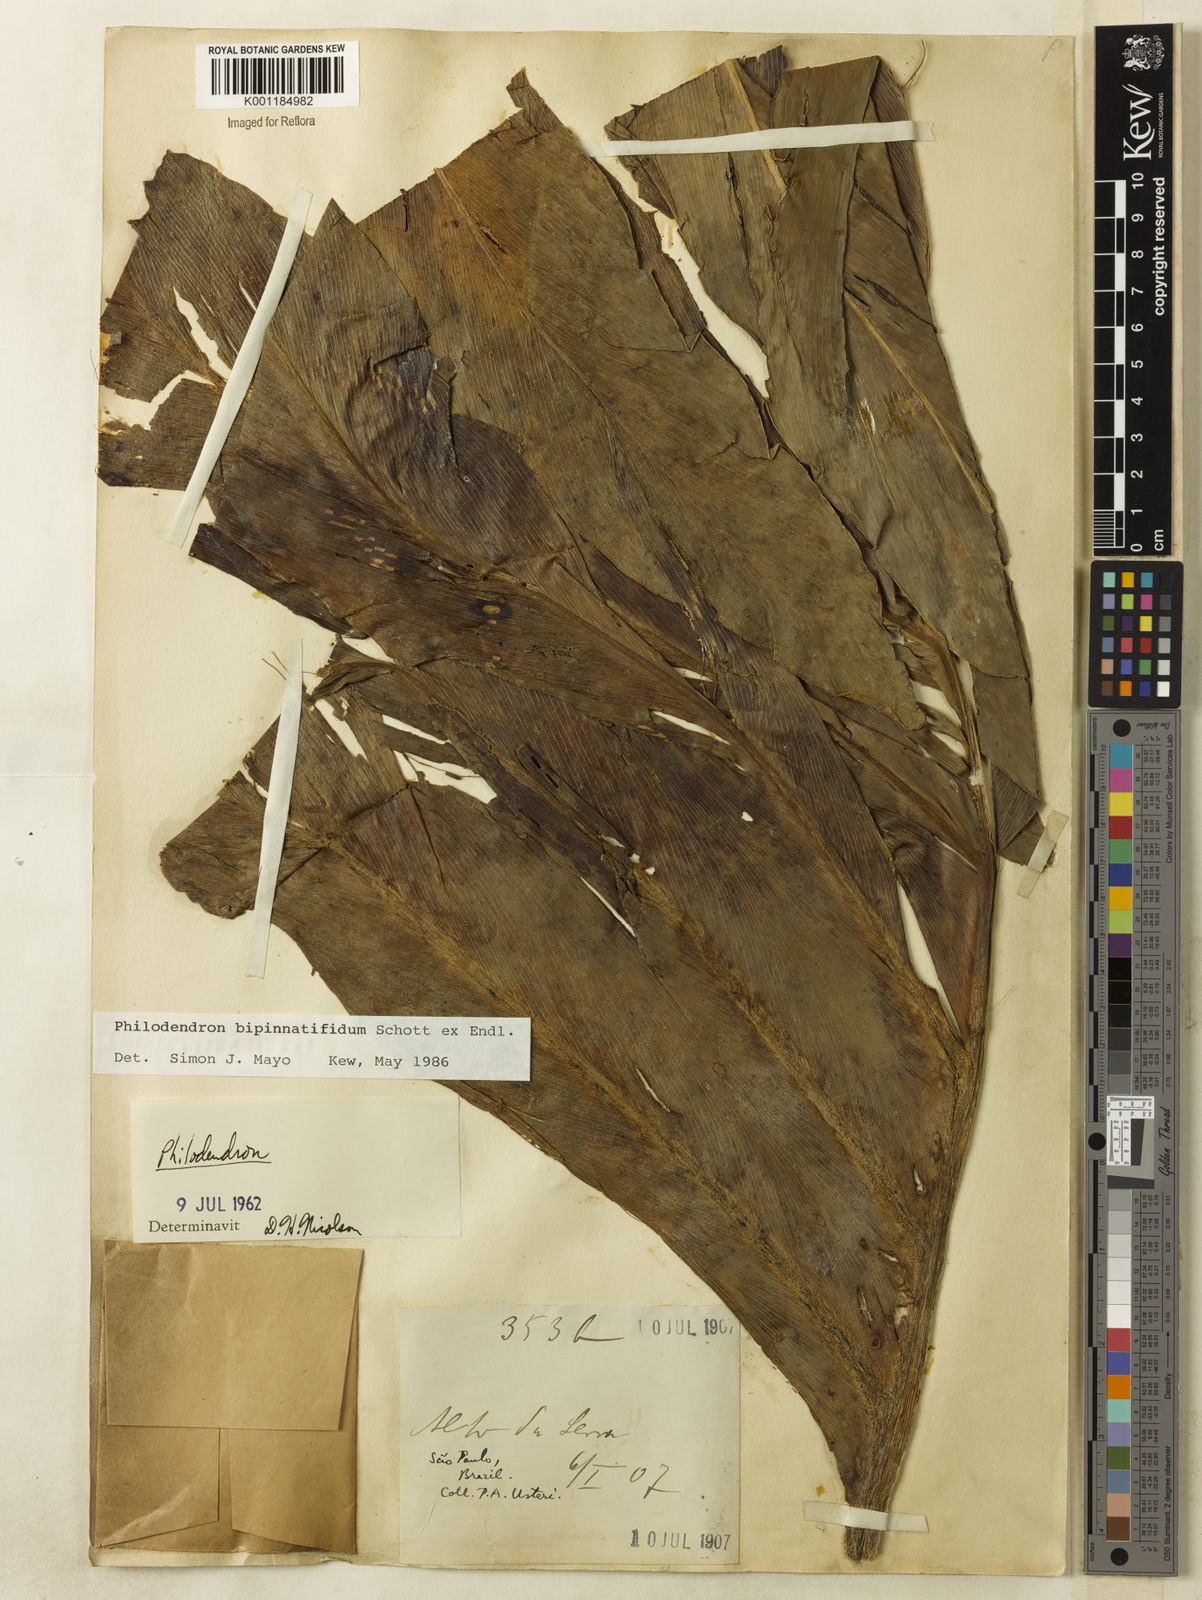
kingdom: Plantae
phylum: Tracheophyta
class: Liliopsida
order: Alismatales
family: Araceae
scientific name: Araceae
